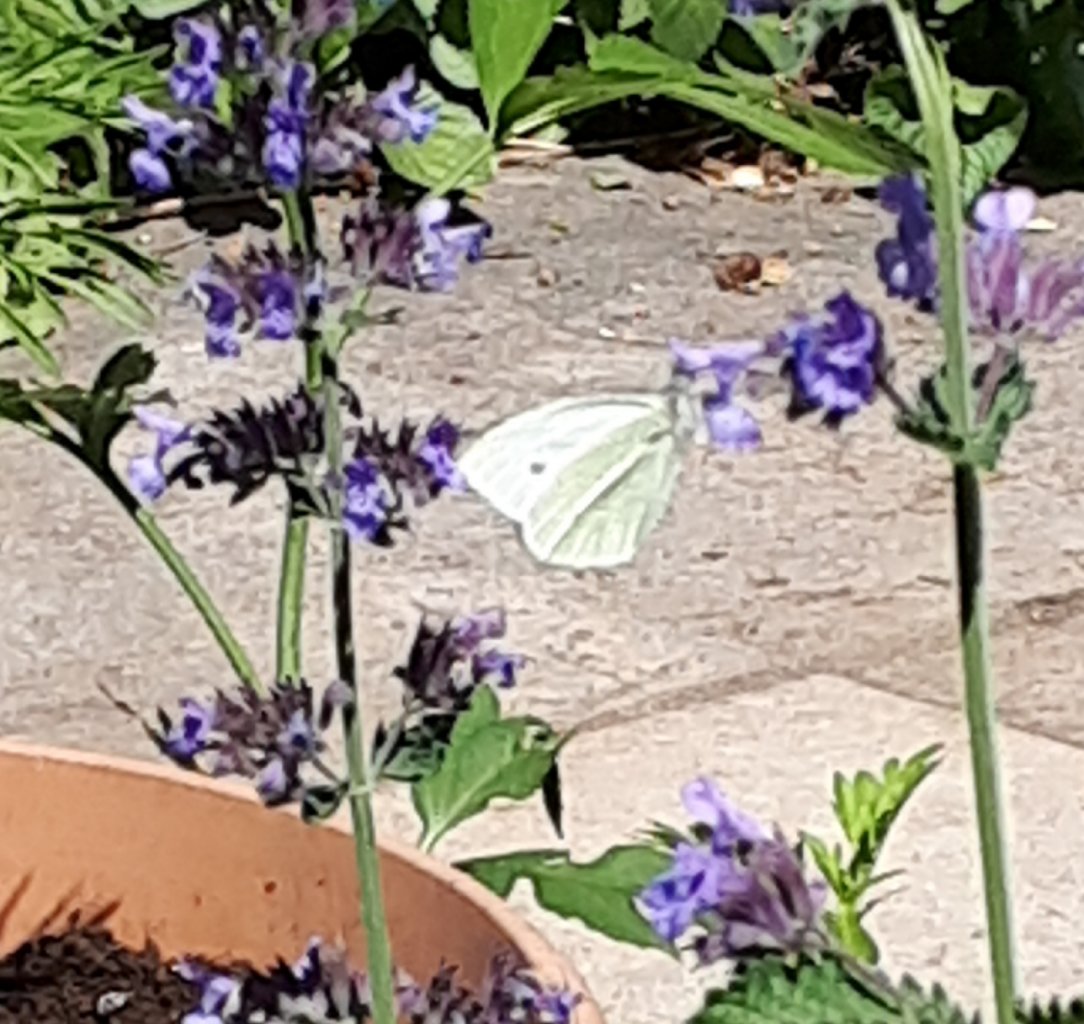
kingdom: Animalia
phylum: Arthropoda
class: Insecta
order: Lepidoptera
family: Pieridae
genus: Pieris
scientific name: Pieris rapae
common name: Cabbage White
